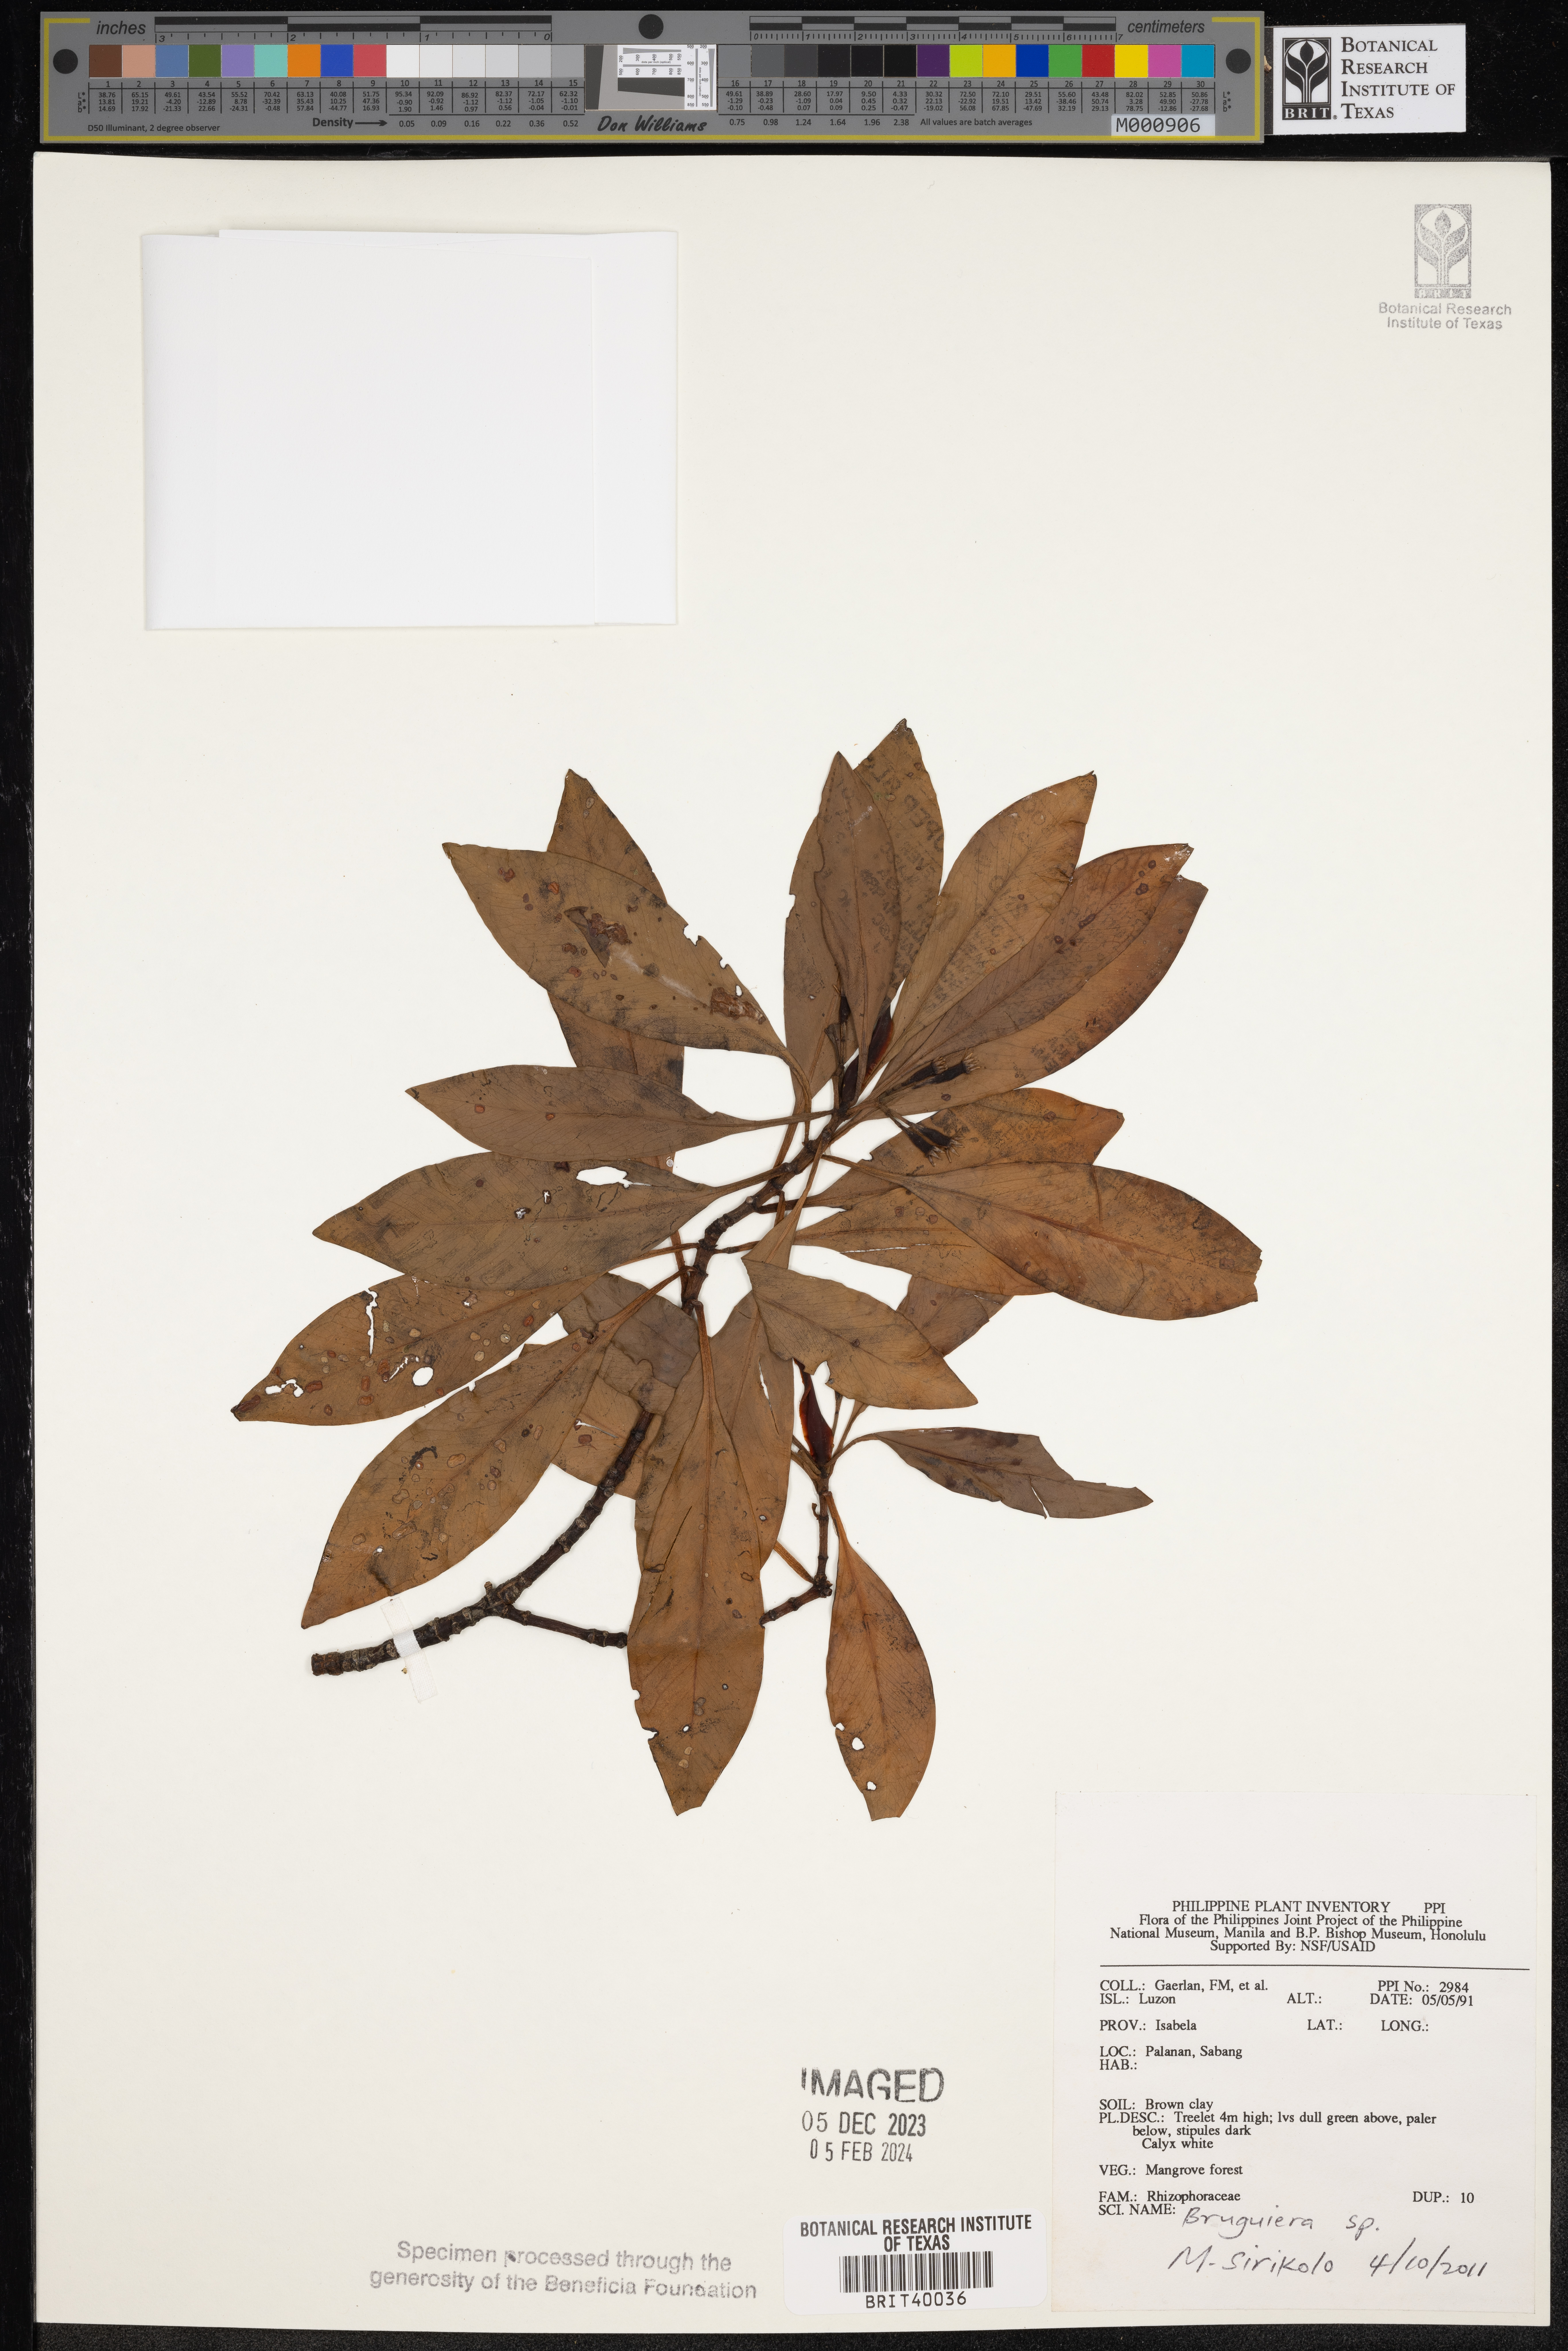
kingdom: Plantae
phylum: Tracheophyta
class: Magnoliopsida
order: Malpighiales
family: Rhizophoraceae
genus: Bruguiera
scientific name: Bruguiera
